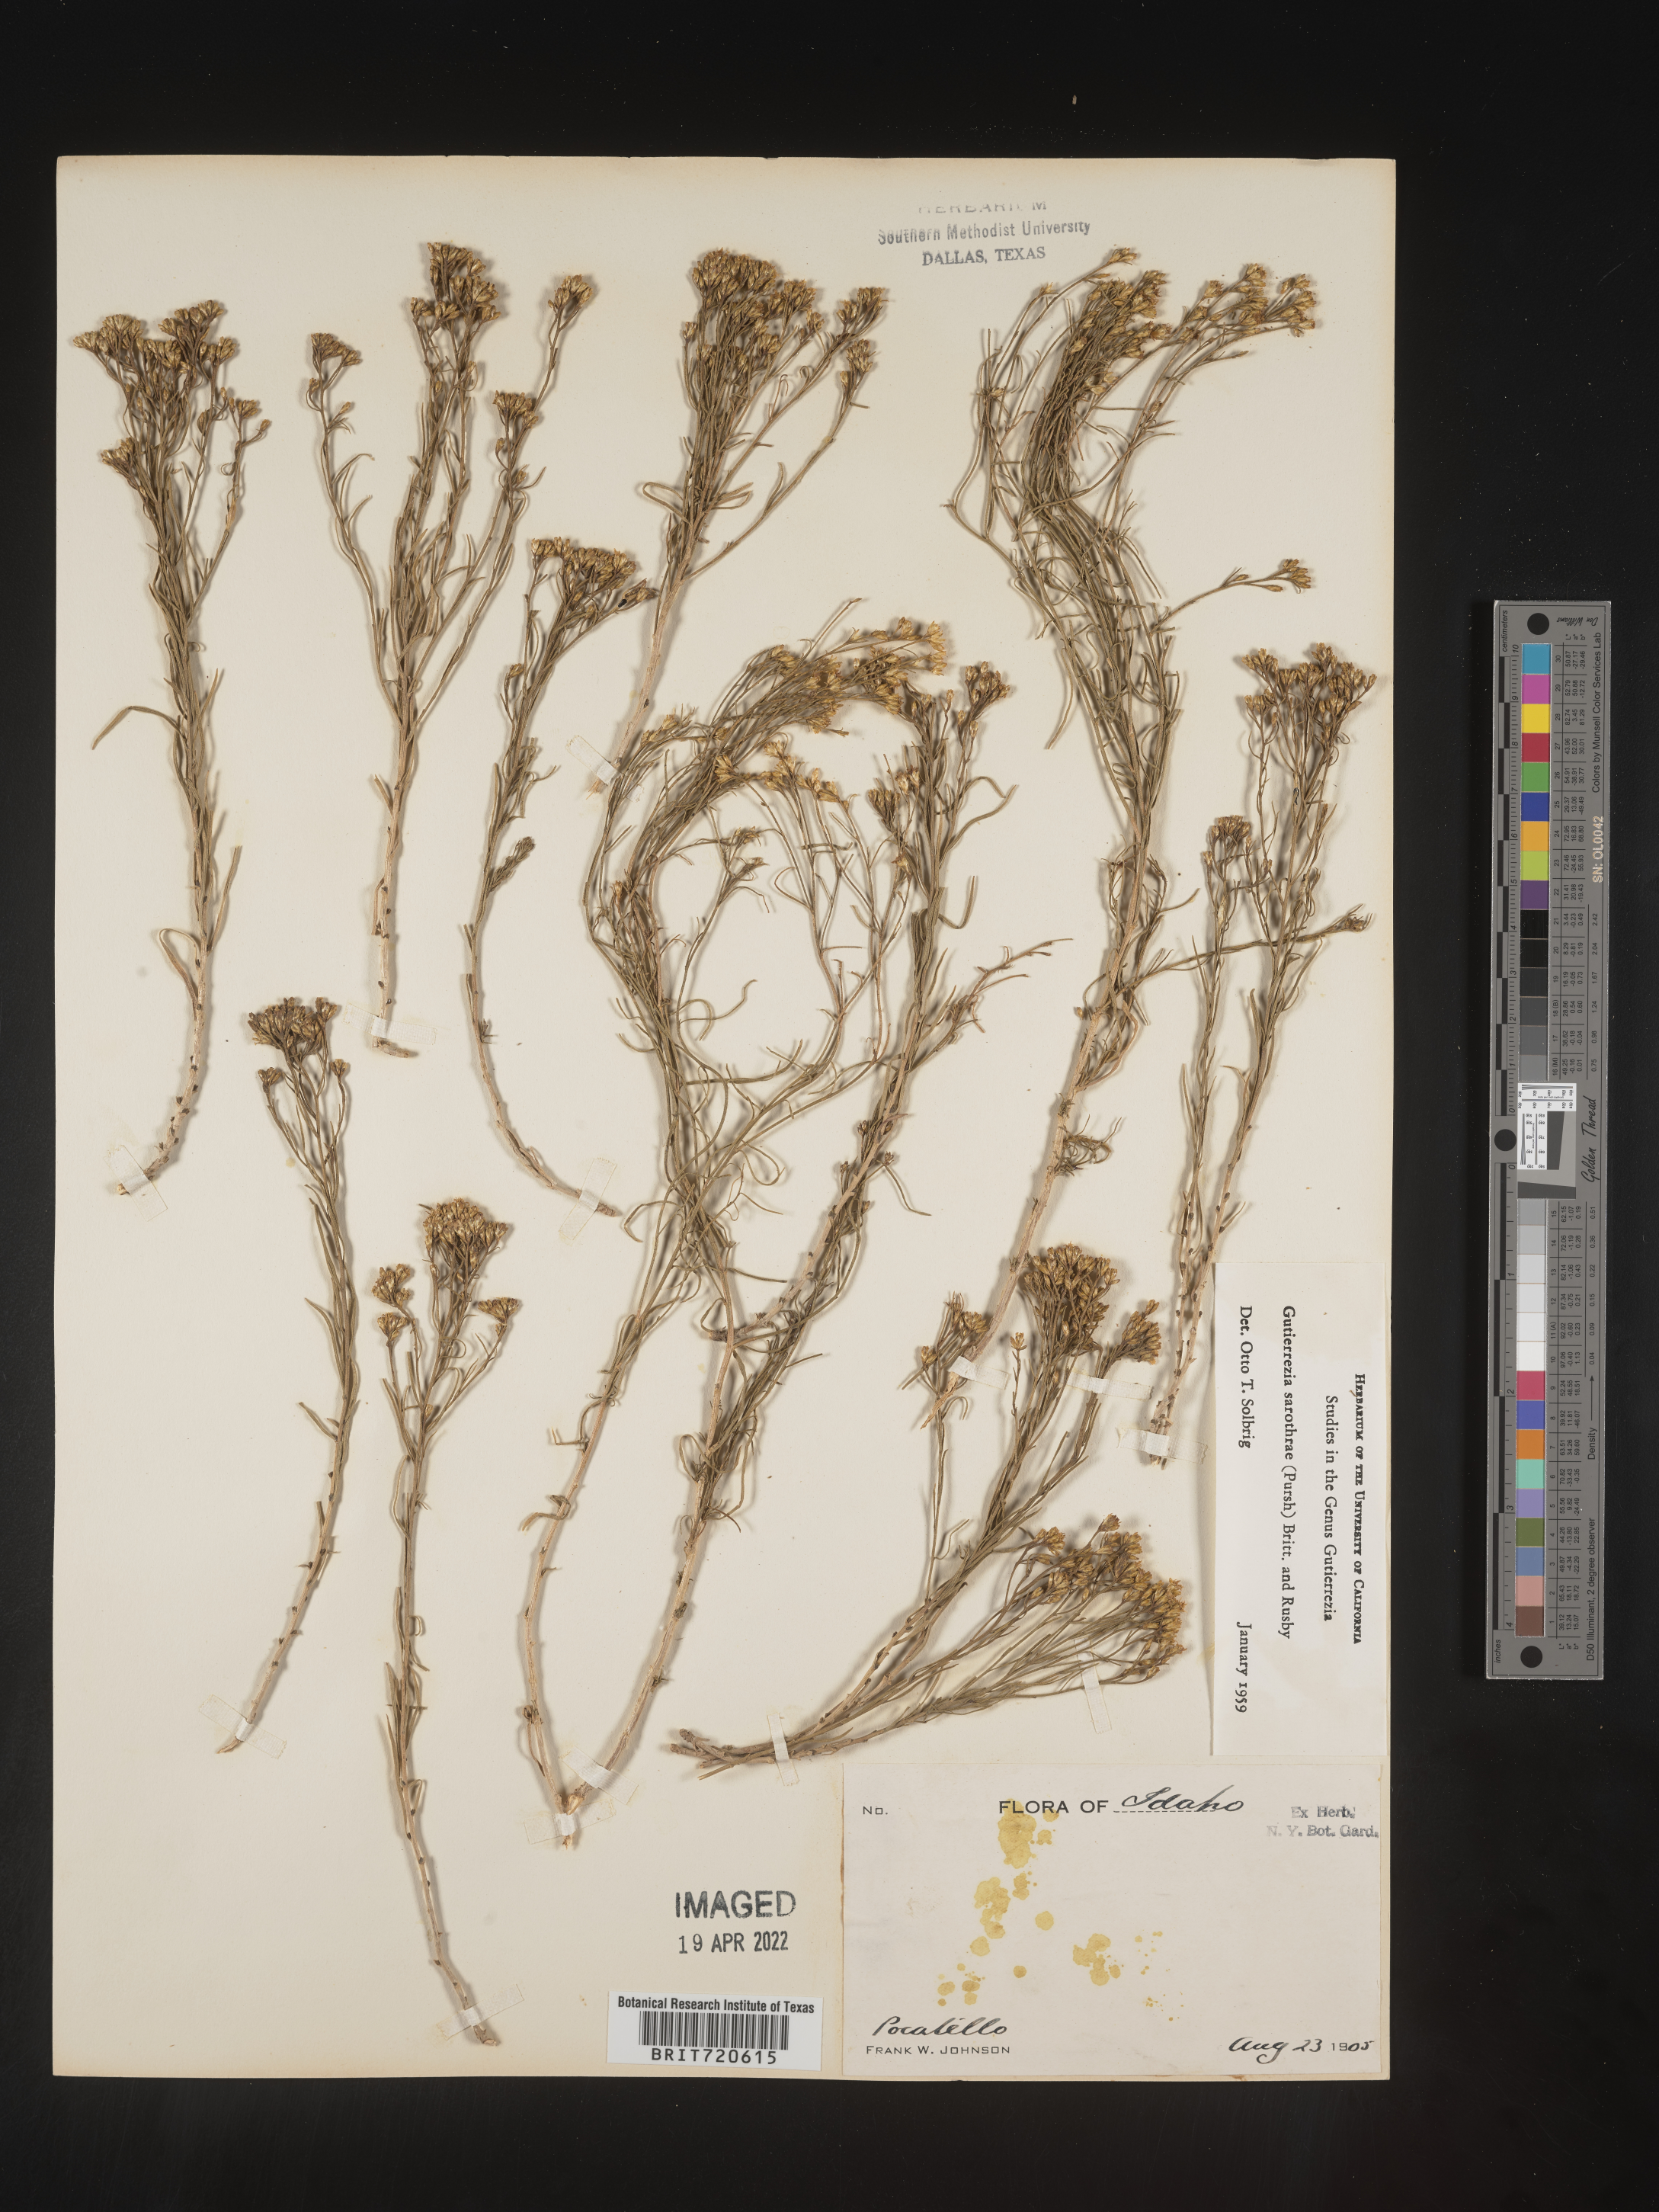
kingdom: Plantae
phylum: Tracheophyta
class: Magnoliopsida
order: Asterales
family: Asteraceae
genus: Gutierrezia
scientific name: Gutierrezia sarothrae
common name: Broom snakeweed
